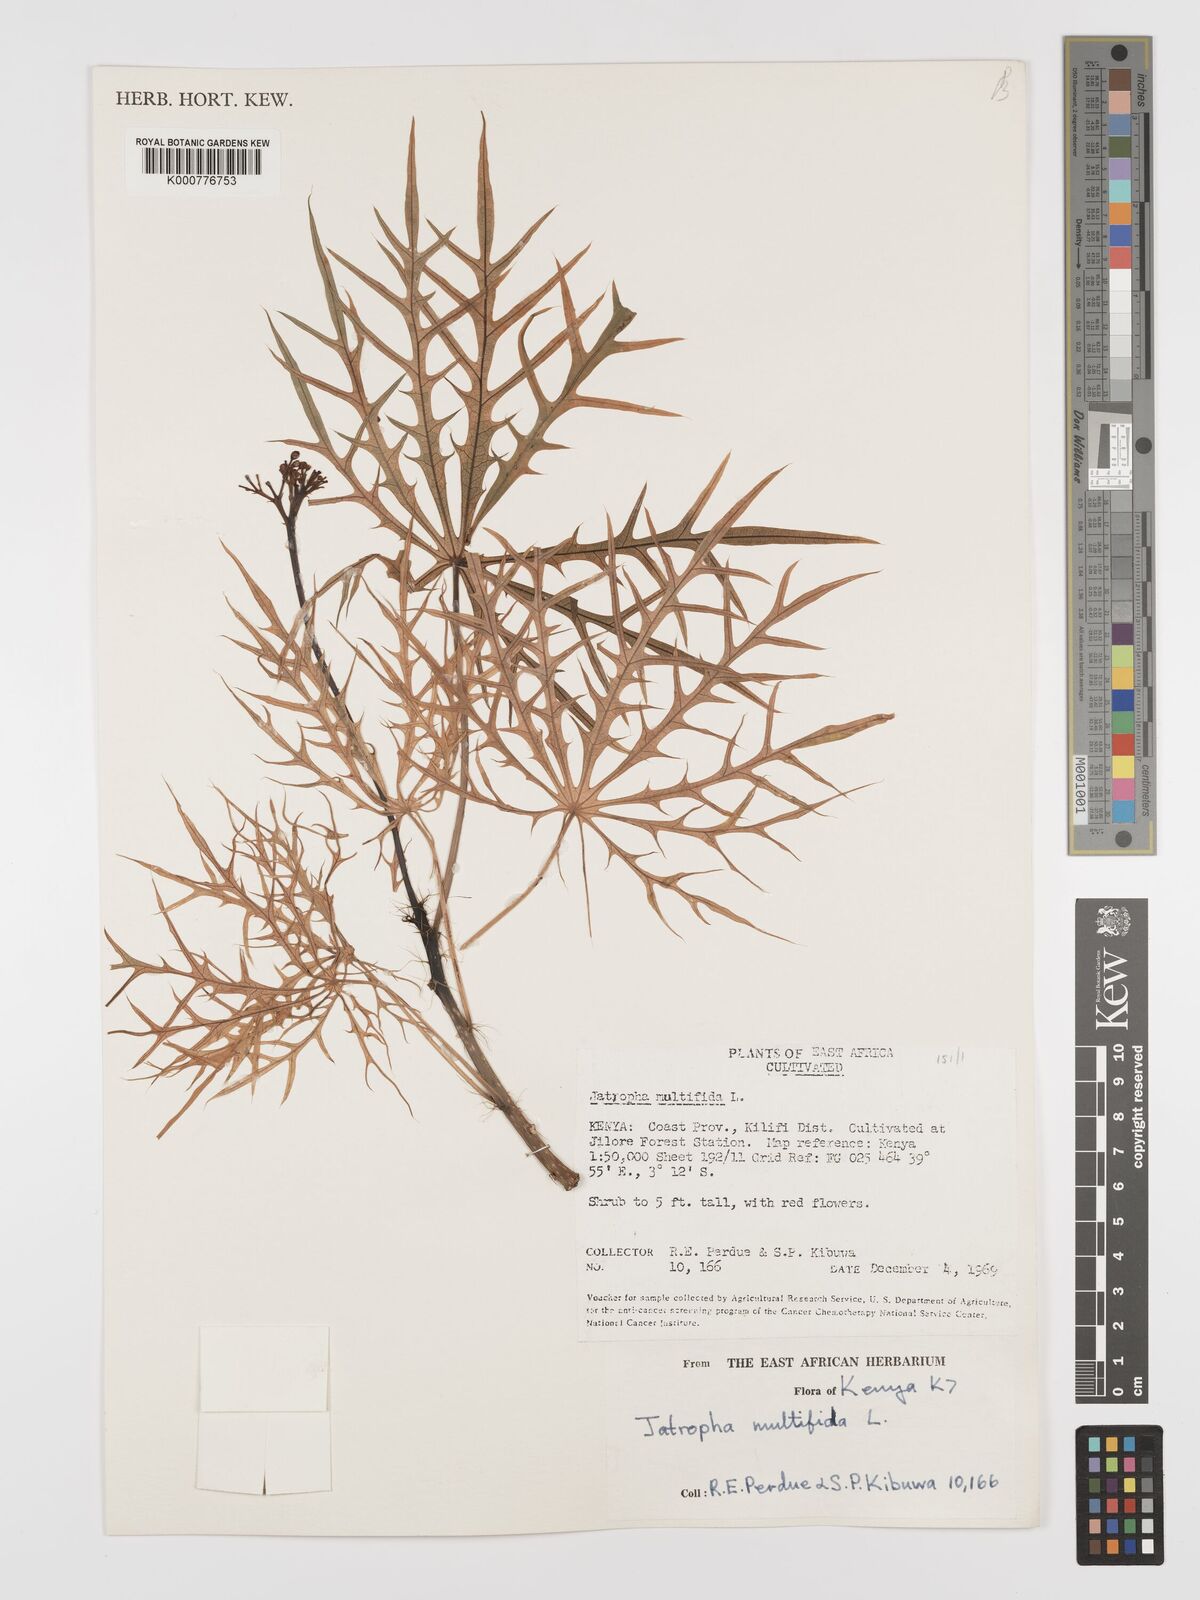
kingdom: Plantae
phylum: Tracheophyta
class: Magnoliopsida
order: Malpighiales
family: Euphorbiaceae
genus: Jatropha
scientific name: Jatropha multifida
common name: Coralbush
